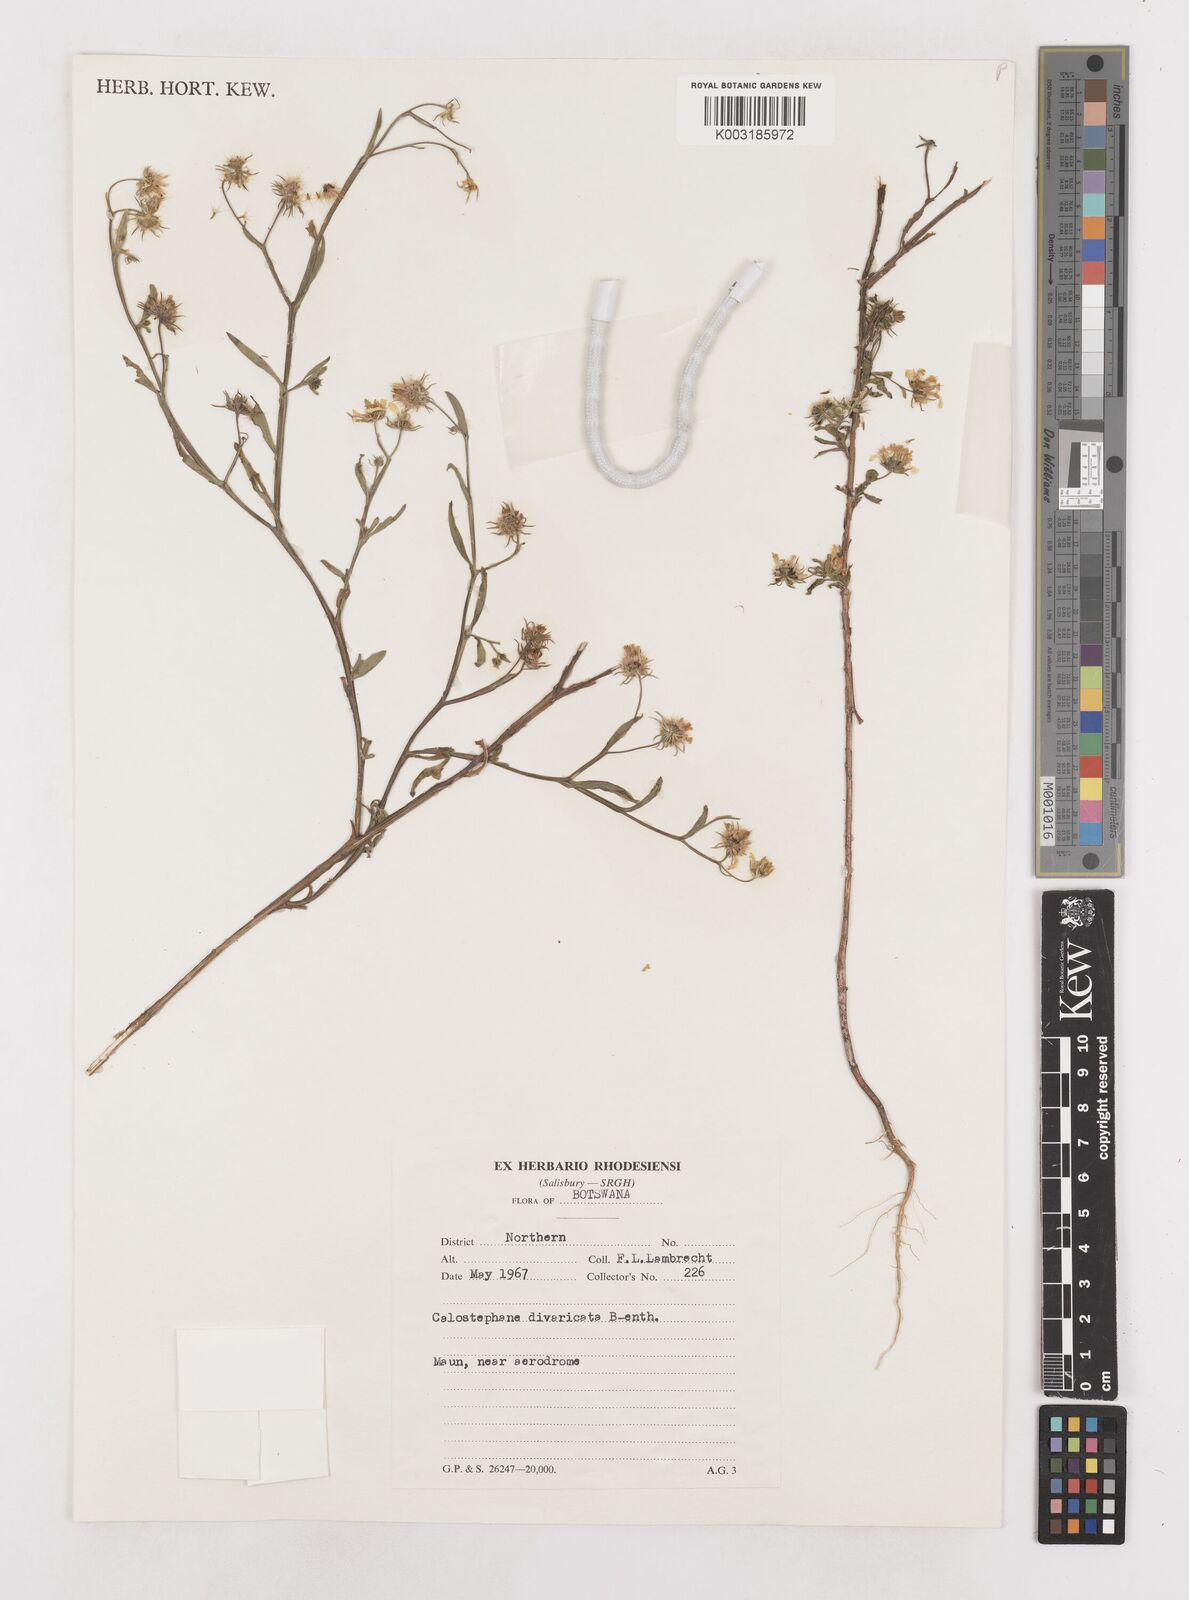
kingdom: Plantae
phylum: Tracheophyta
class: Magnoliopsida
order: Asterales
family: Asteraceae
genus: Calostephane
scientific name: Calostephane divaricata
